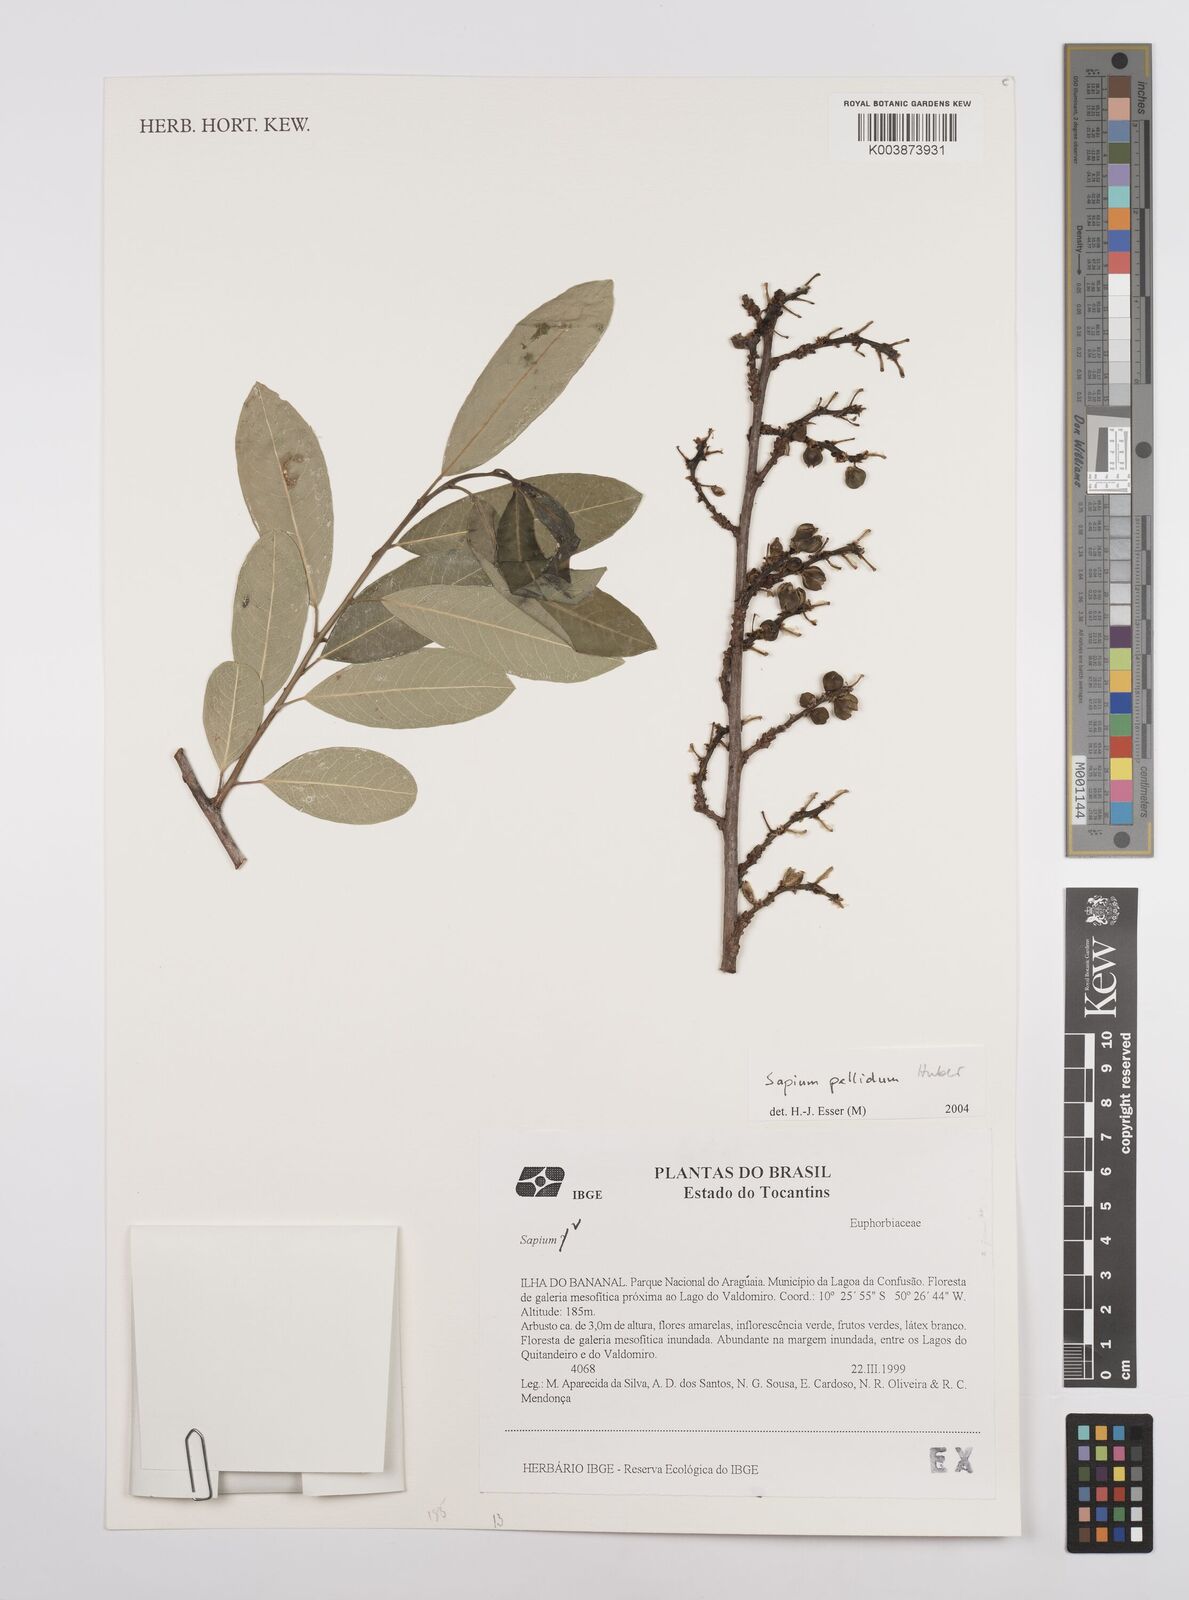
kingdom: Plantae
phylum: Tracheophyta
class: Magnoliopsida
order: Malpighiales
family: Euphorbiaceae
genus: Sapium
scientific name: Sapium pallidum
